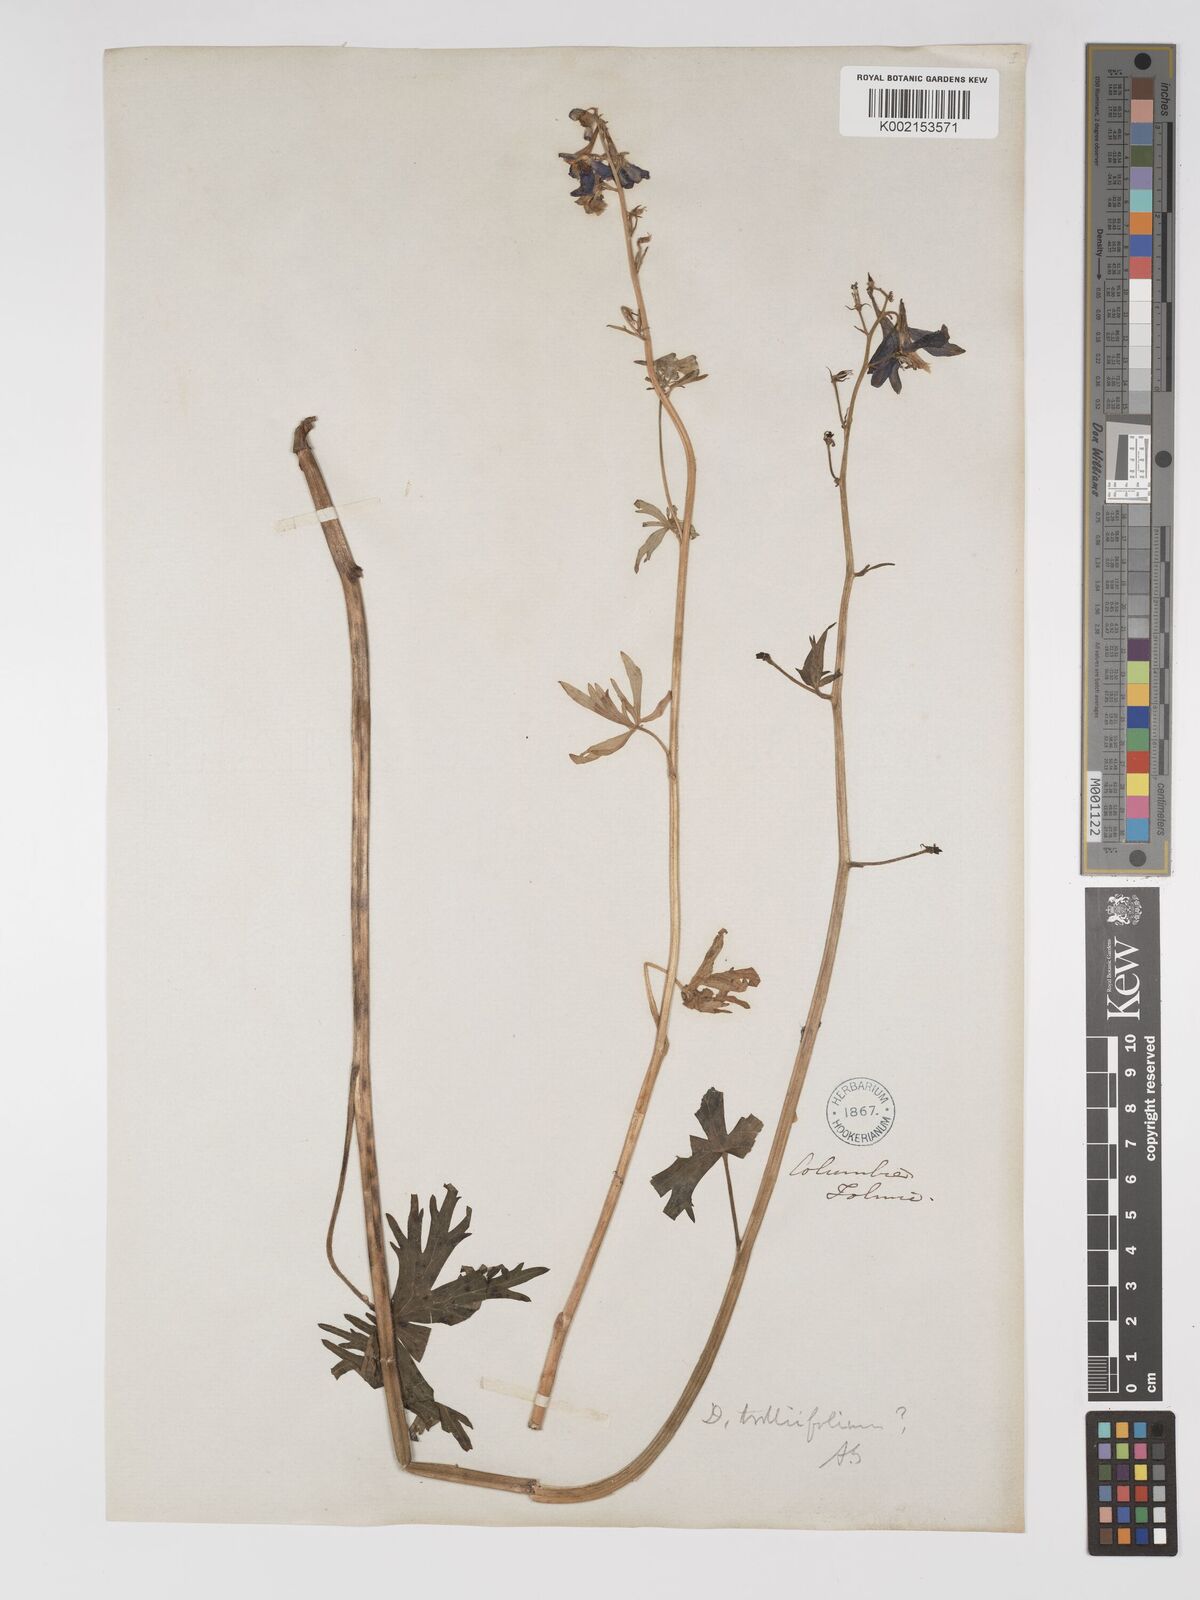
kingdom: Plantae
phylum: Tracheophyta
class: Magnoliopsida
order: Ranunculales
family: Ranunculaceae
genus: Delphinium
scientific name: Delphinium trolliifolium
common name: Cow-poison
